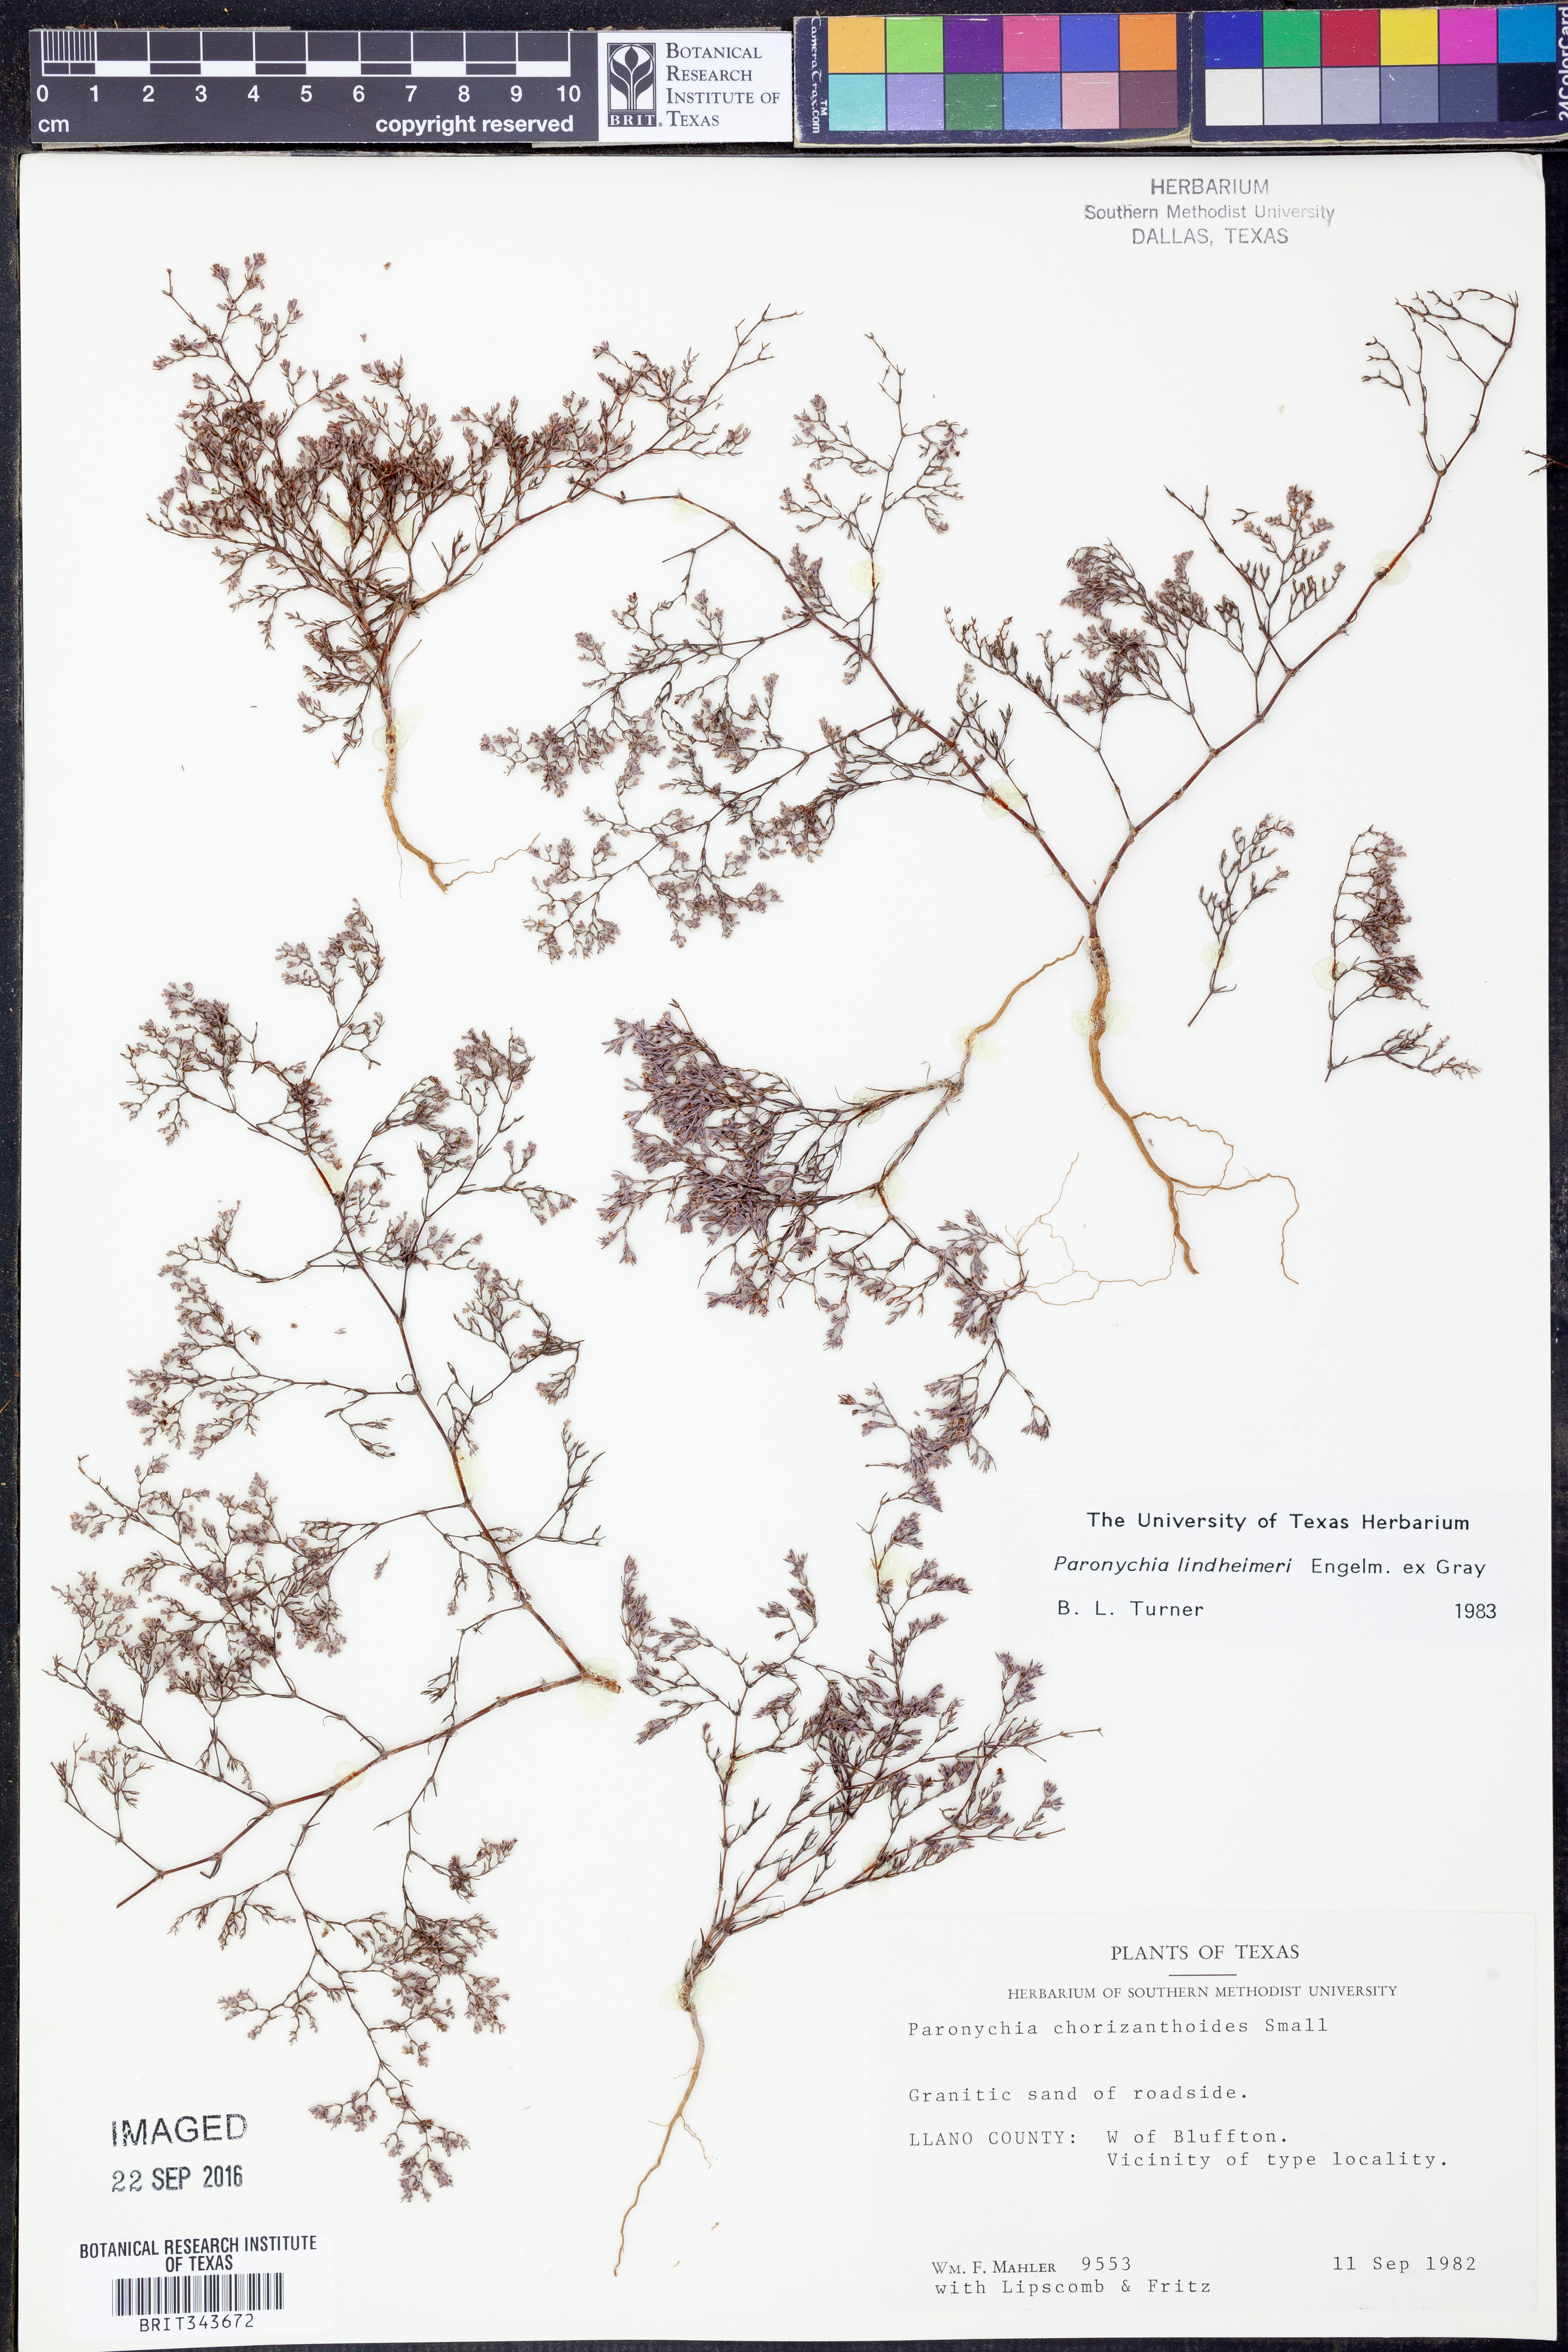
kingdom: Plantae
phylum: Tracheophyta
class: Magnoliopsida
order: Caryophyllales
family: Caryophyllaceae
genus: Paronychia
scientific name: Paronychia lindheimeri
